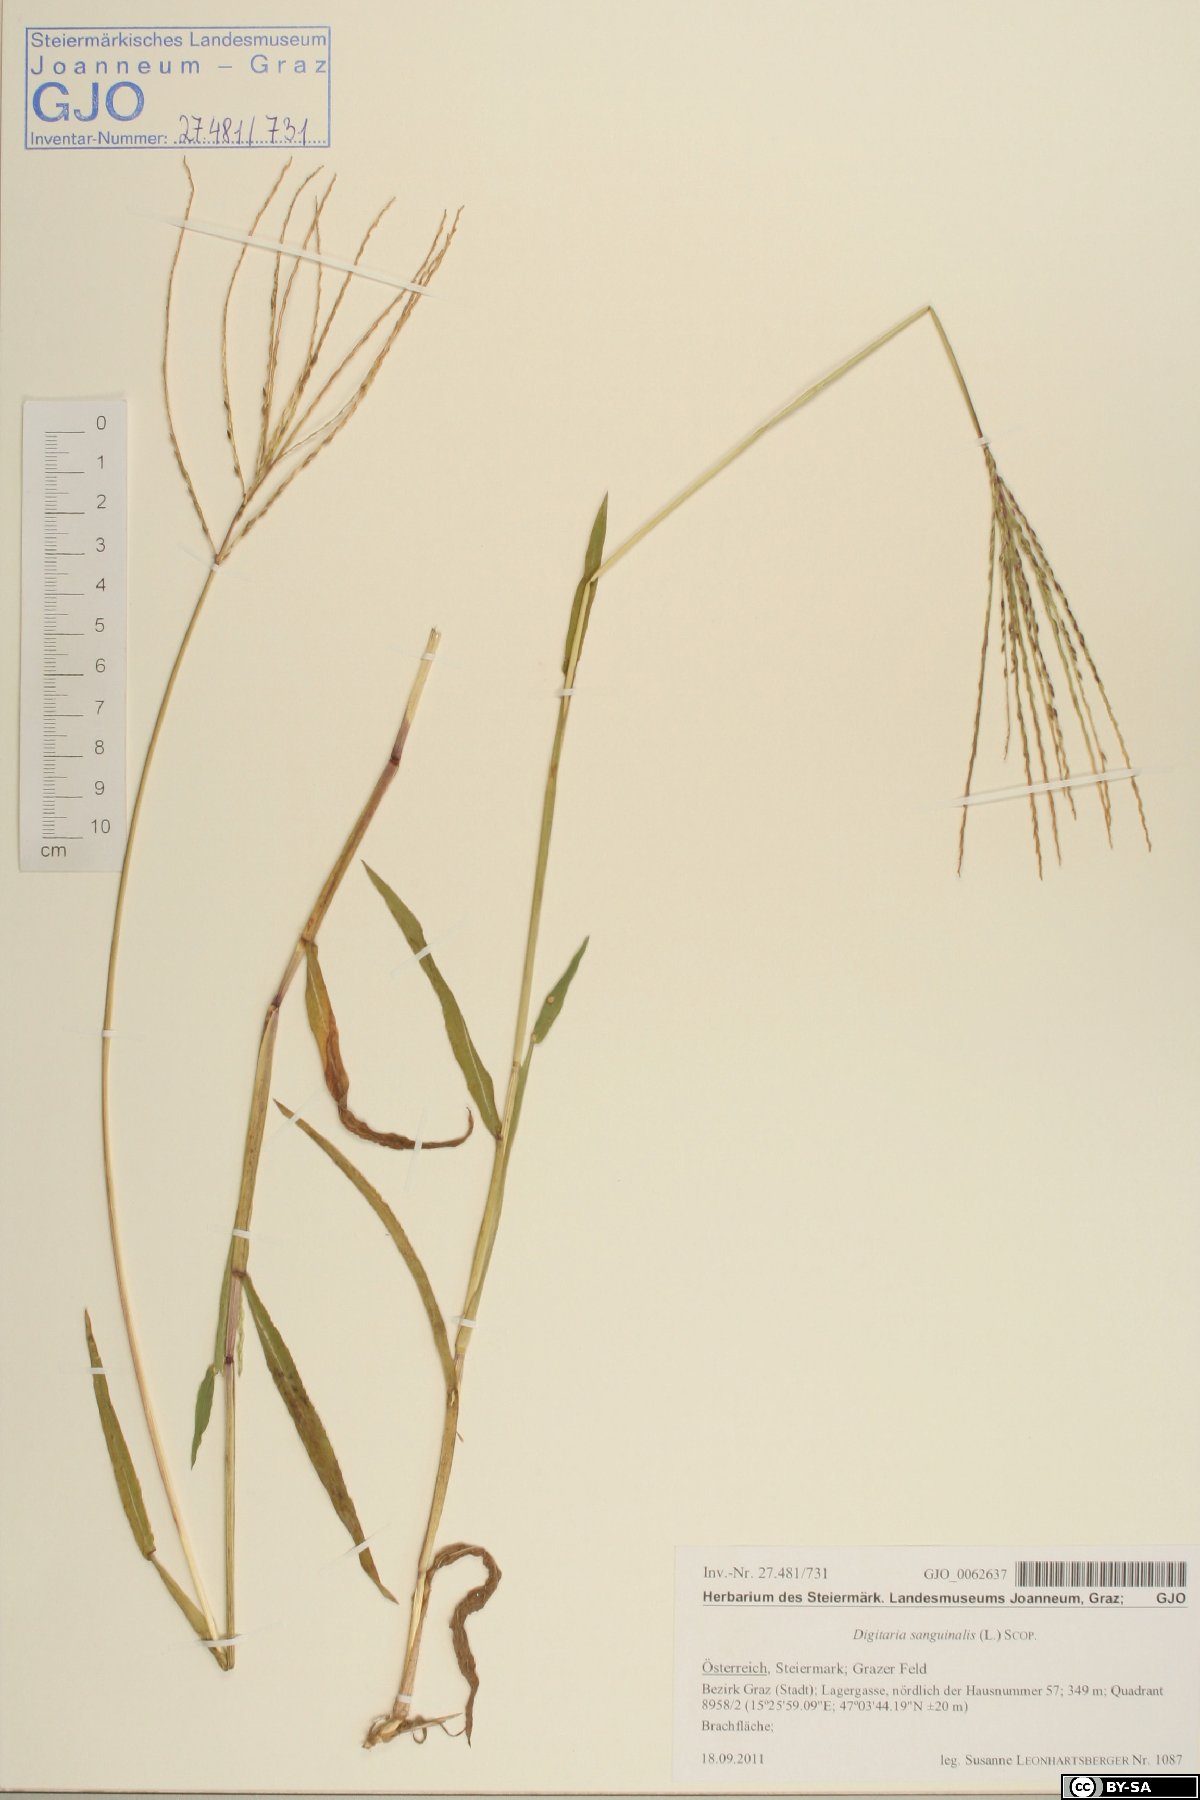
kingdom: Plantae
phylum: Tracheophyta
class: Liliopsida
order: Poales
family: Poaceae
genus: Digitaria
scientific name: Digitaria sanguinalis
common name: Hairy crabgrass
